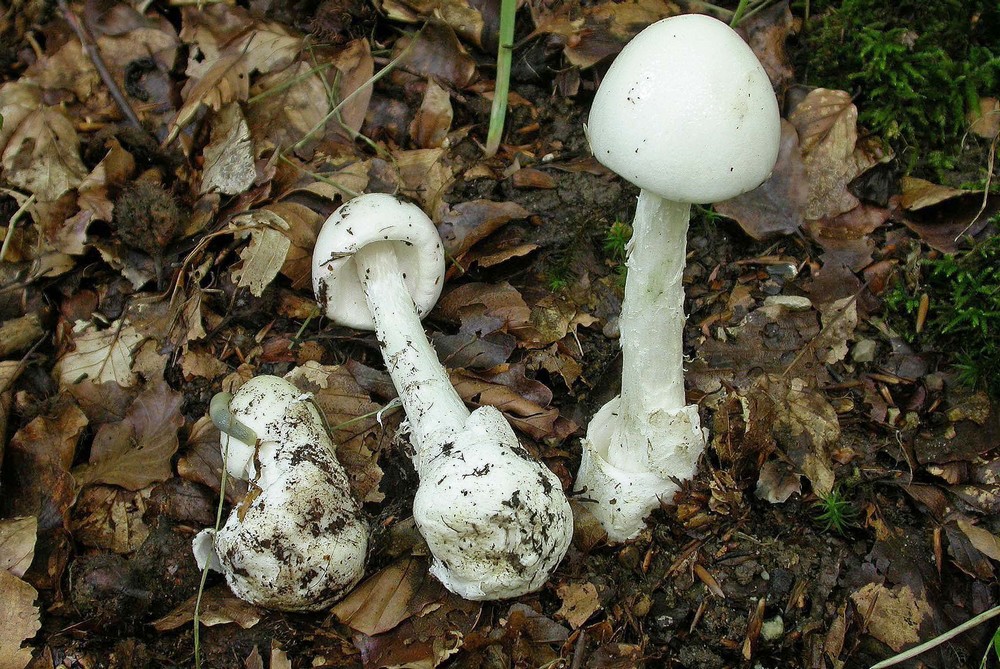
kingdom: Fungi
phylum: Basidiomycota
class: Agaricomycetes
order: Agaricales
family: Amanitaceae
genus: Amanita
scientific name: Amanita virosa
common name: snehvid fluesvamp
